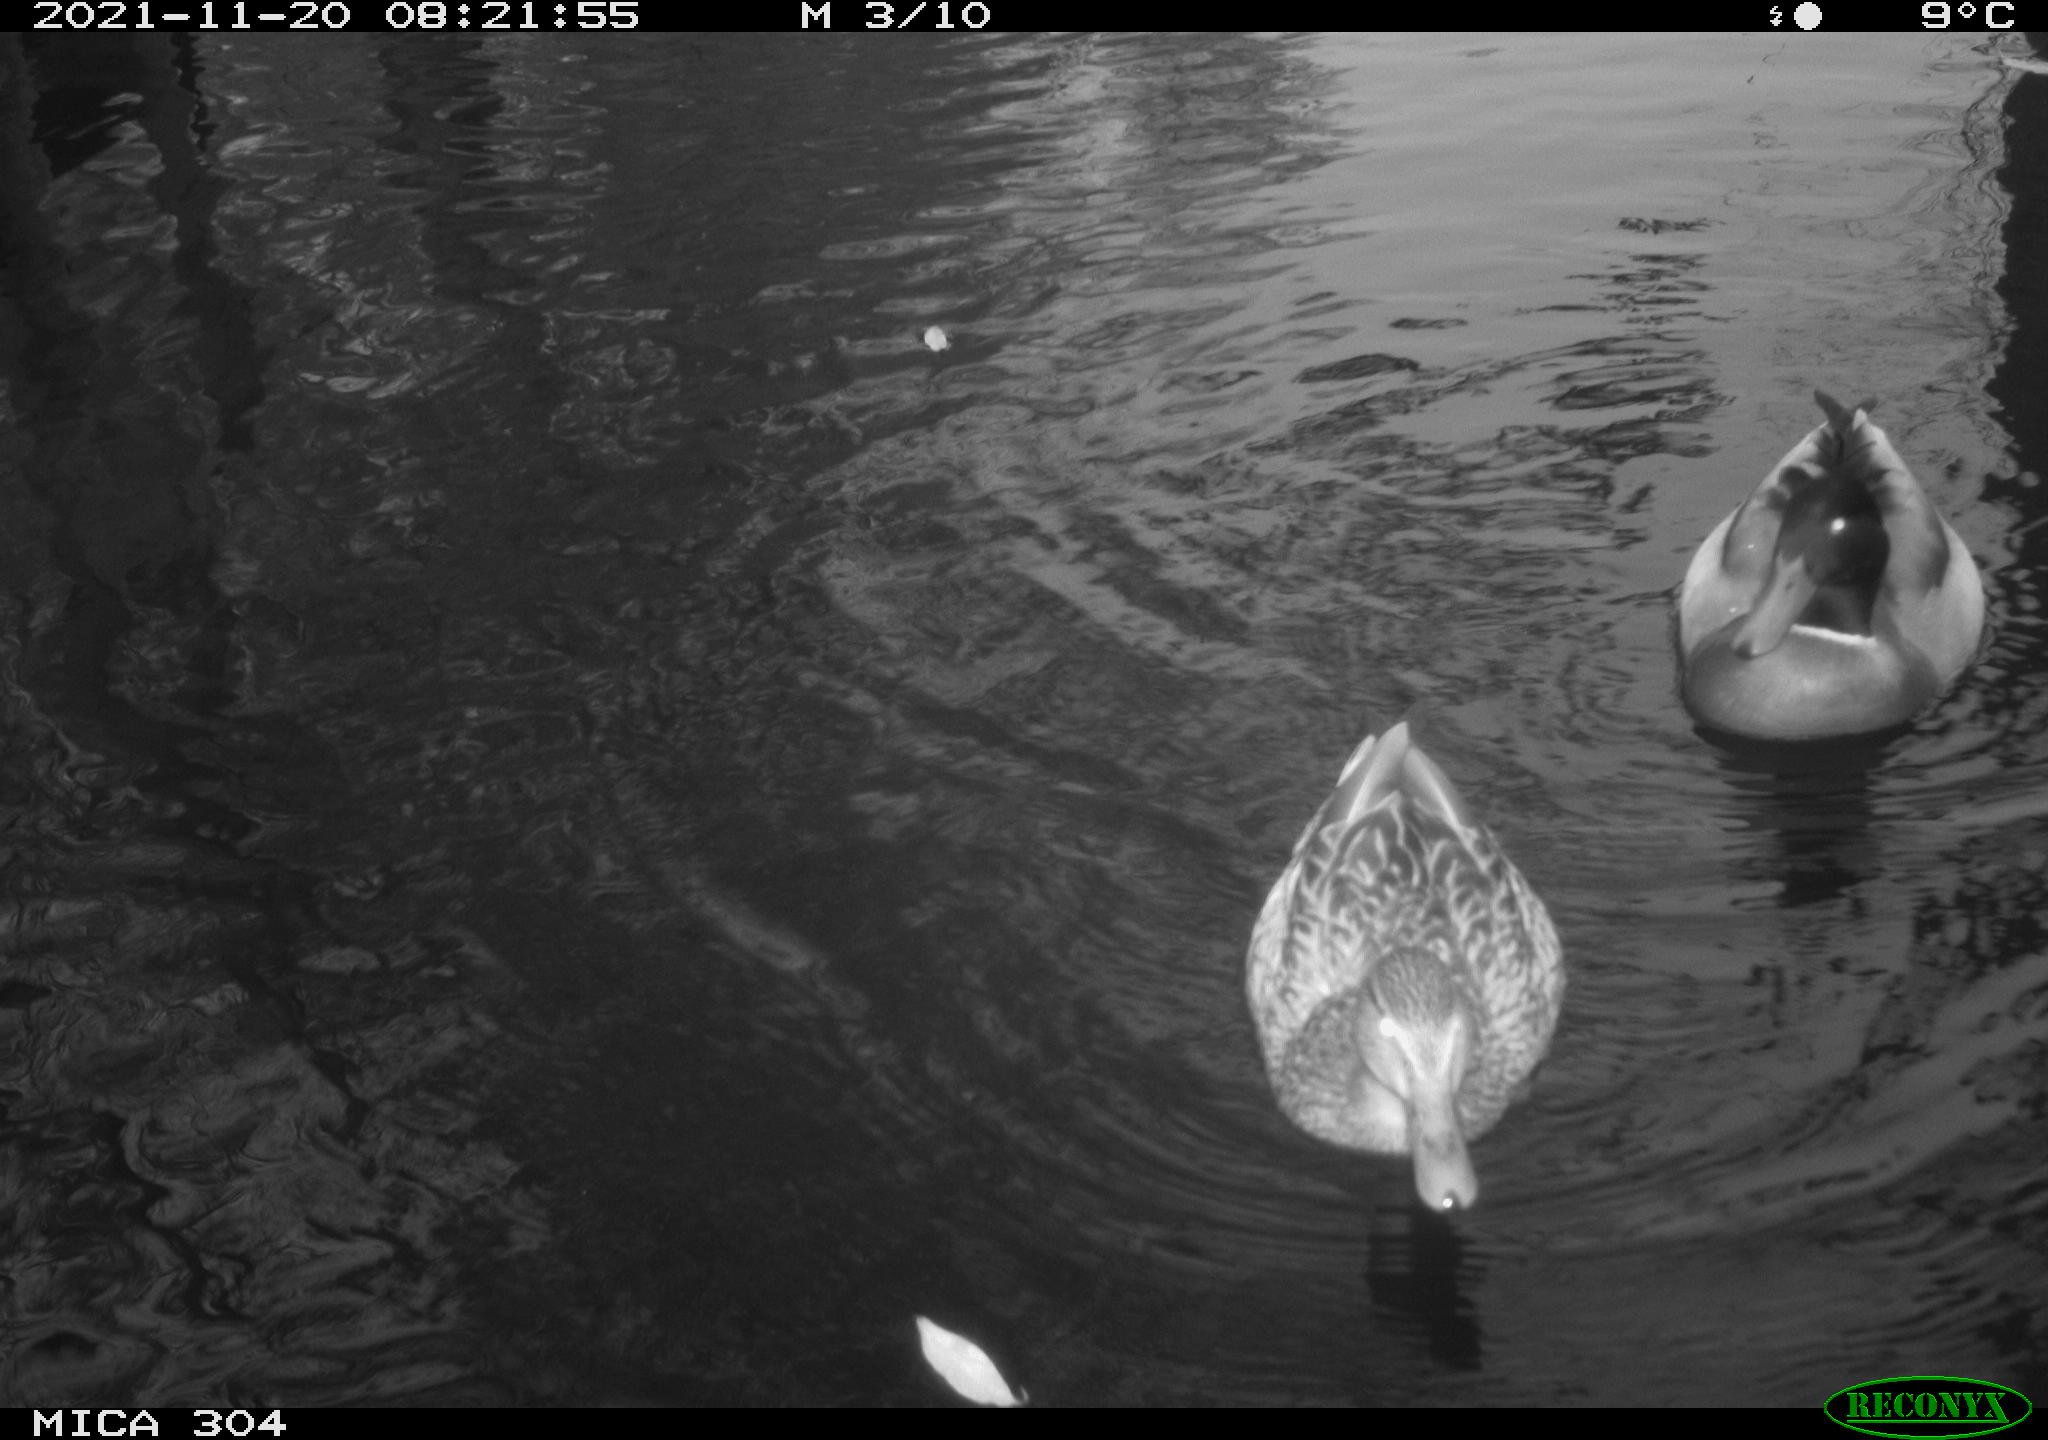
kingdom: Animalia
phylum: Chordata
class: Aves
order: Anseriformes
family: Anatidae
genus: Anas
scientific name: Anas platyrhynchos
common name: Mallard
